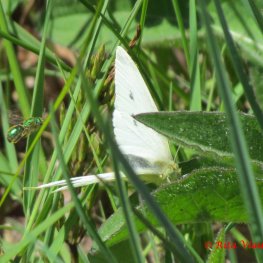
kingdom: Animalia
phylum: Arthropoda
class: Insecta
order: Lepidoptera
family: Pieridae
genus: Pieris
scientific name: Pieris rapae
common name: Cabbage White
